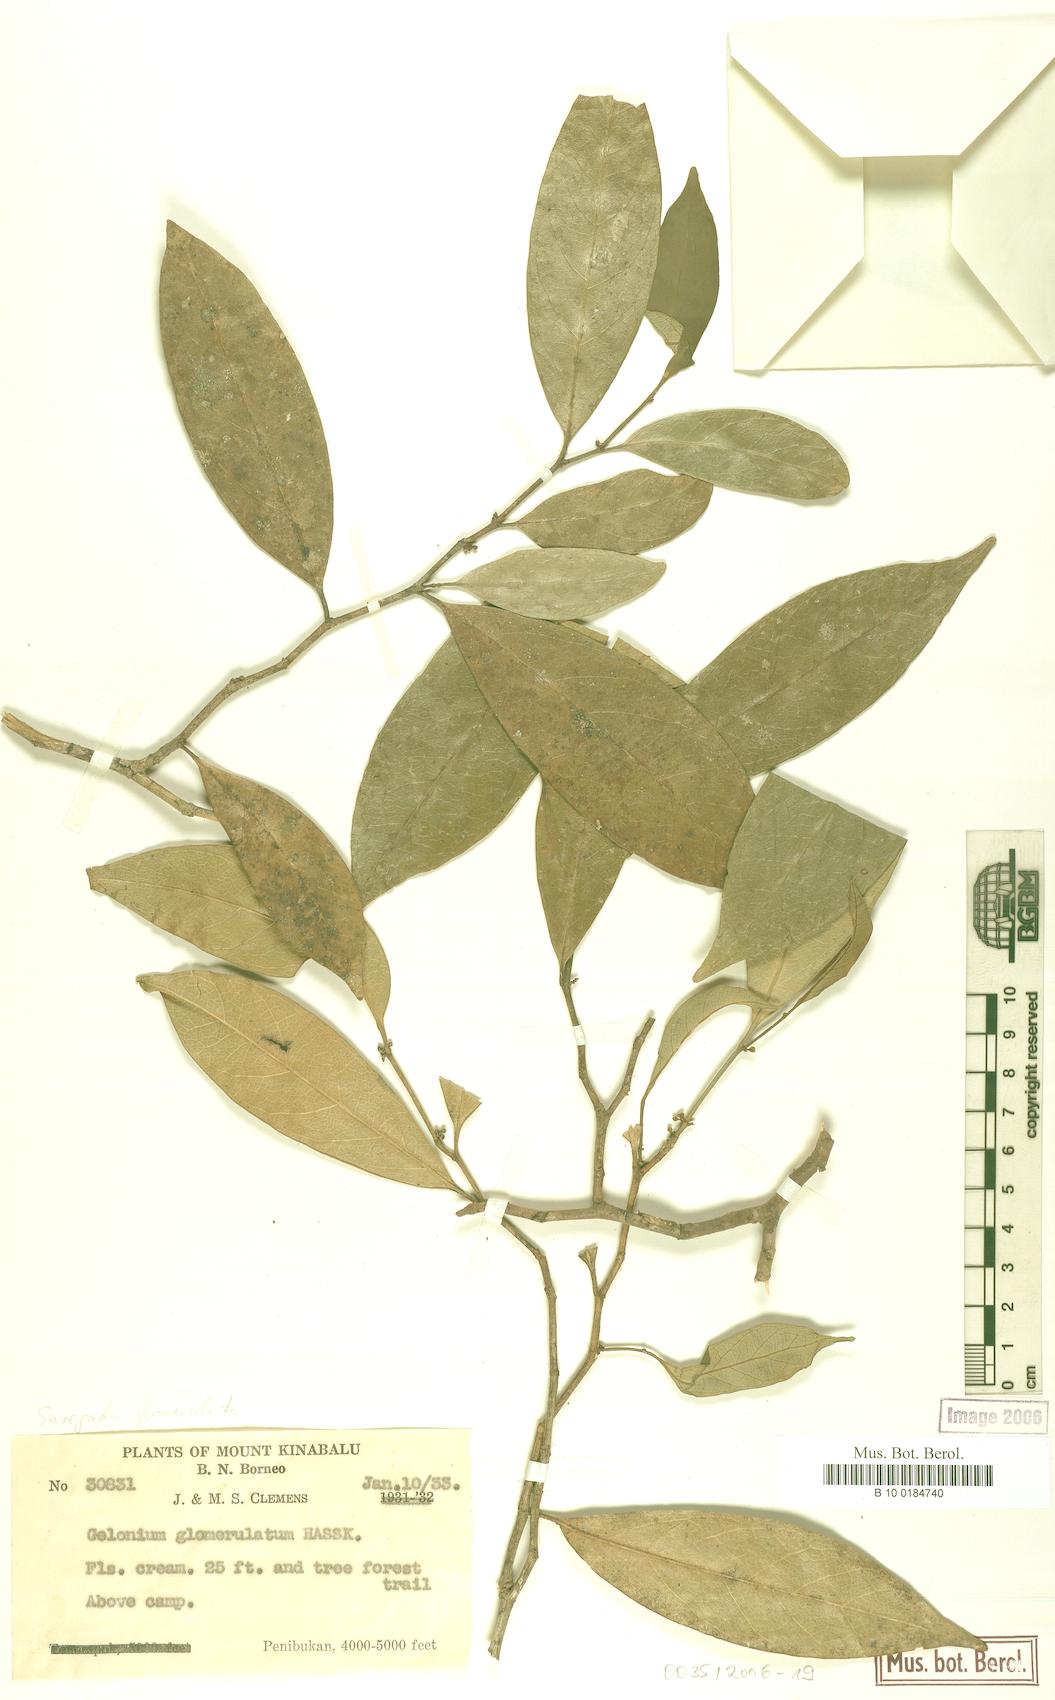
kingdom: Plantae
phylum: Tracheophyta
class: Magnoliopsida
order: Malpighiales
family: Euphorbiaceae
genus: Suregada
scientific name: Suregada glomerulata
